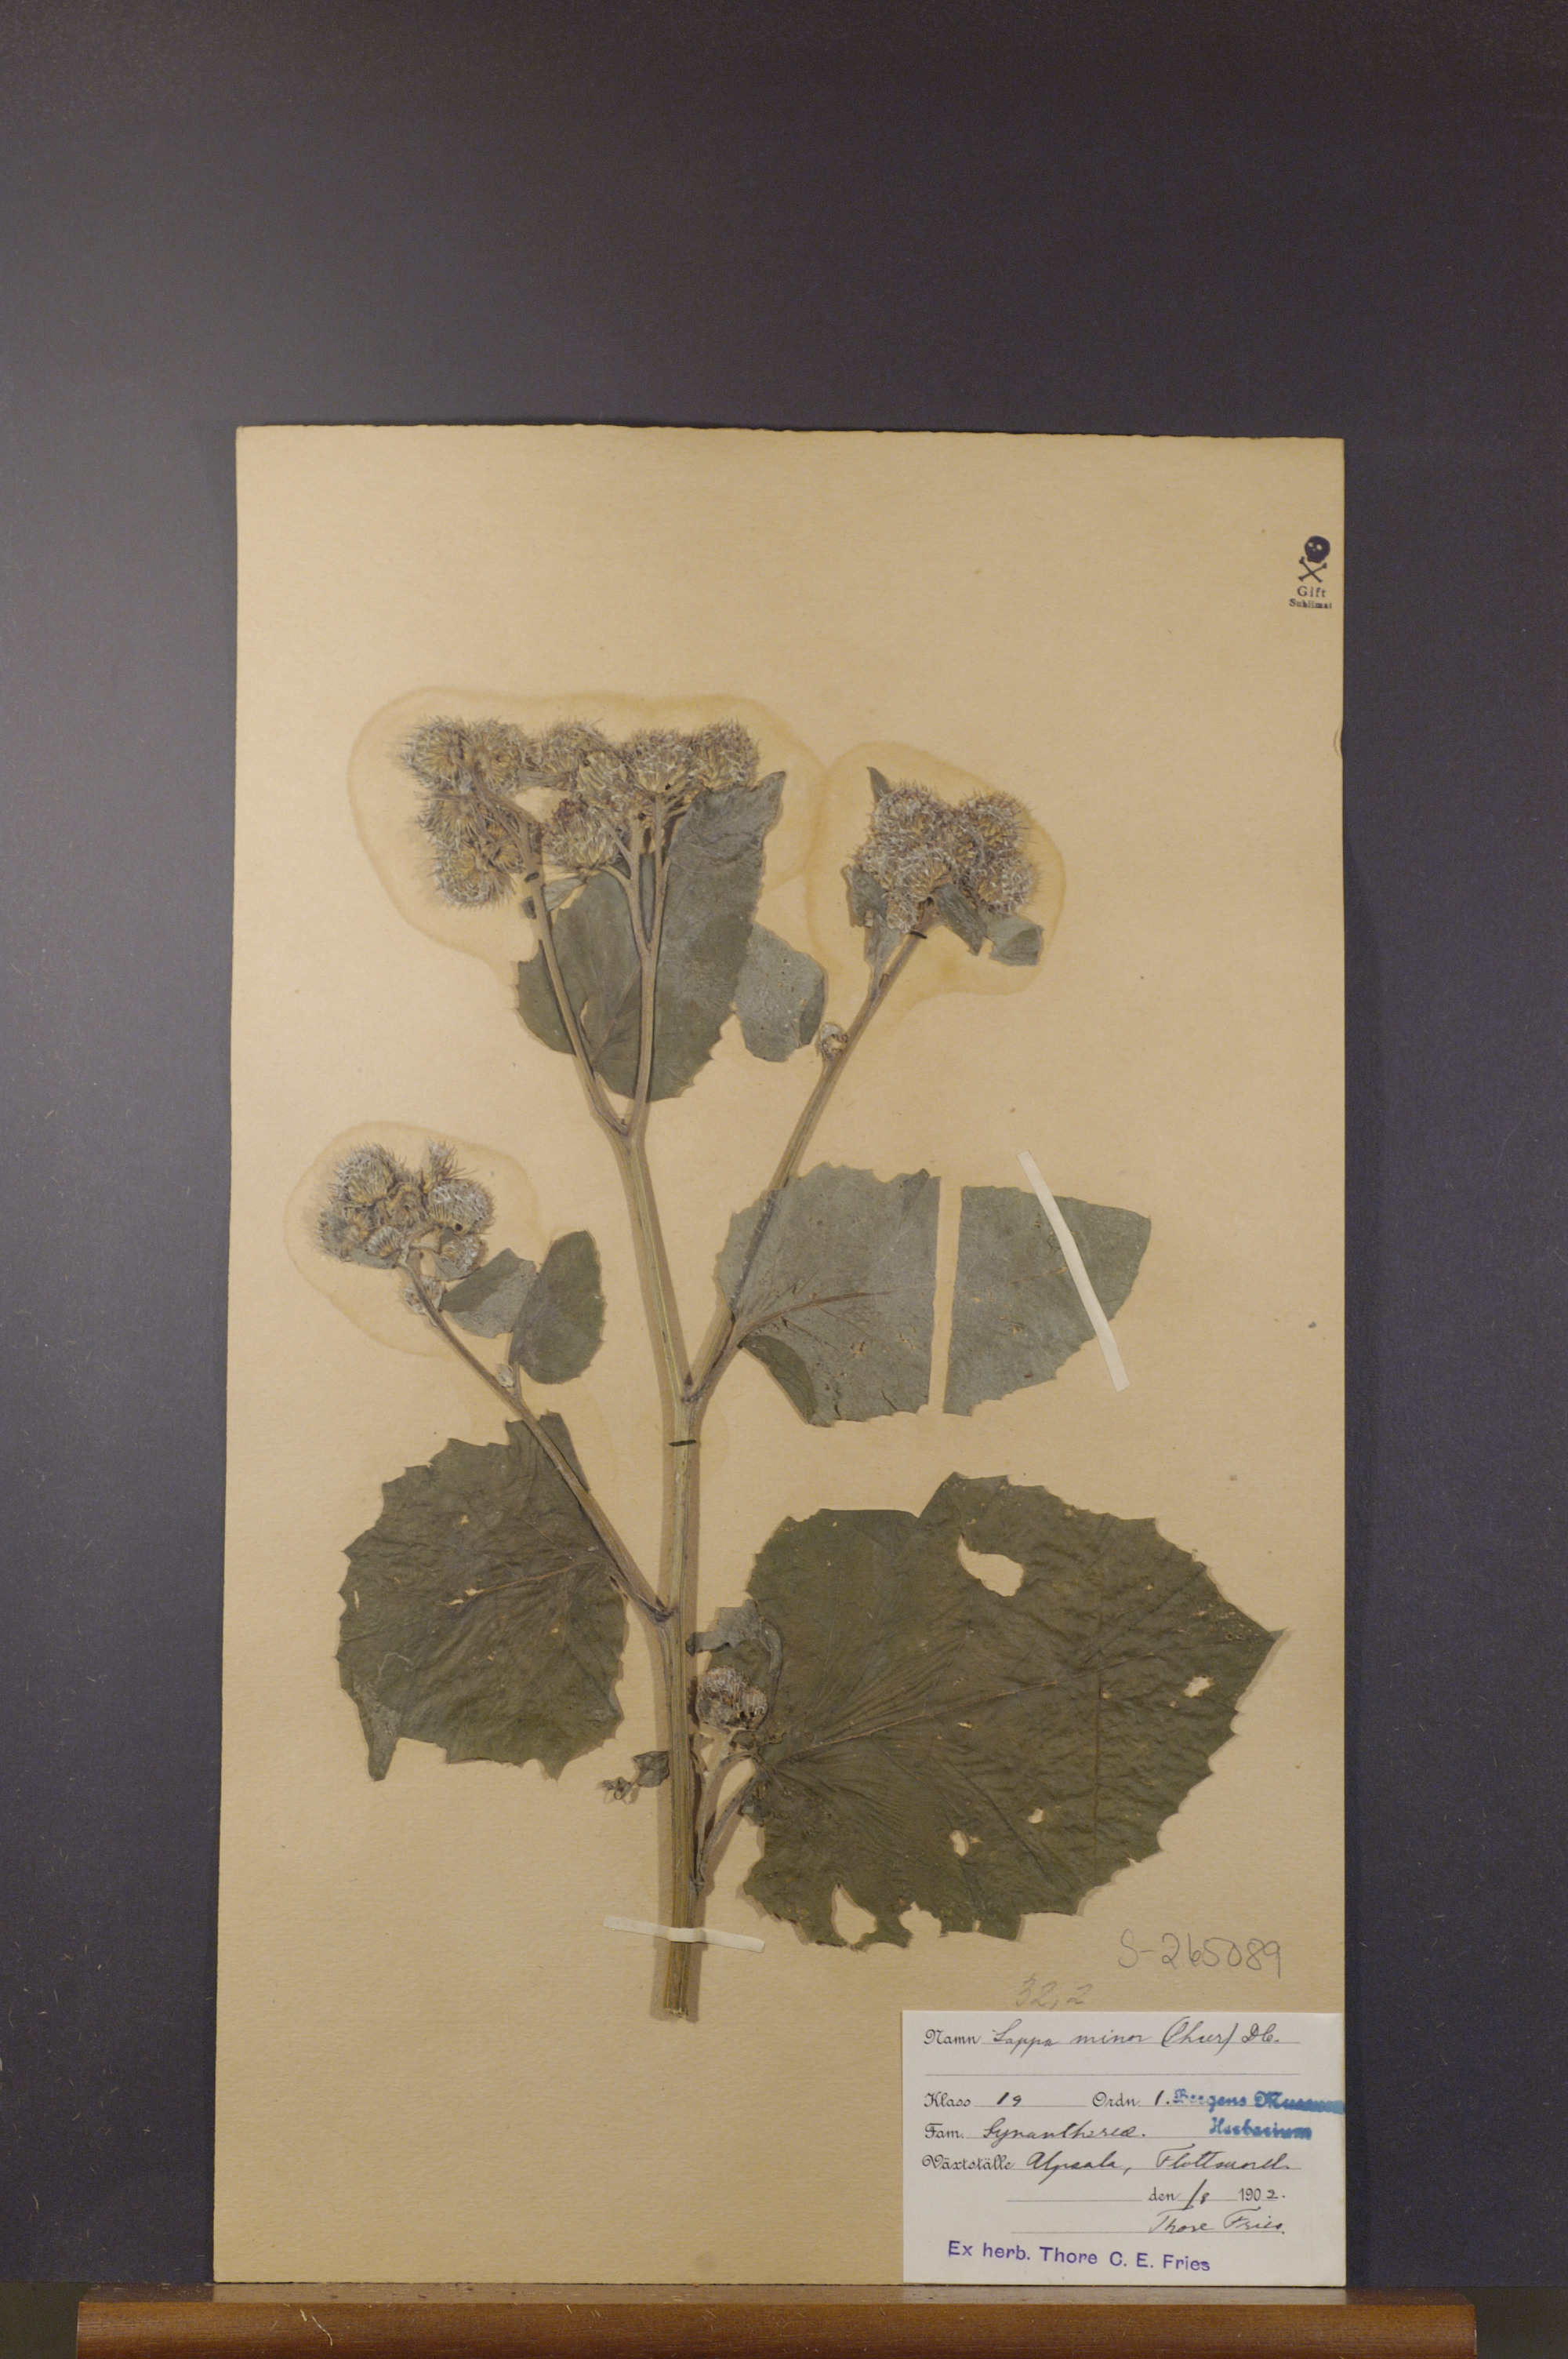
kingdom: Plantae
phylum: Tracheophyta
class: Magnoliopsida
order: Asterales
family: Asteraceae
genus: Arctium
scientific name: Arctium minus
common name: Lesser burdock
